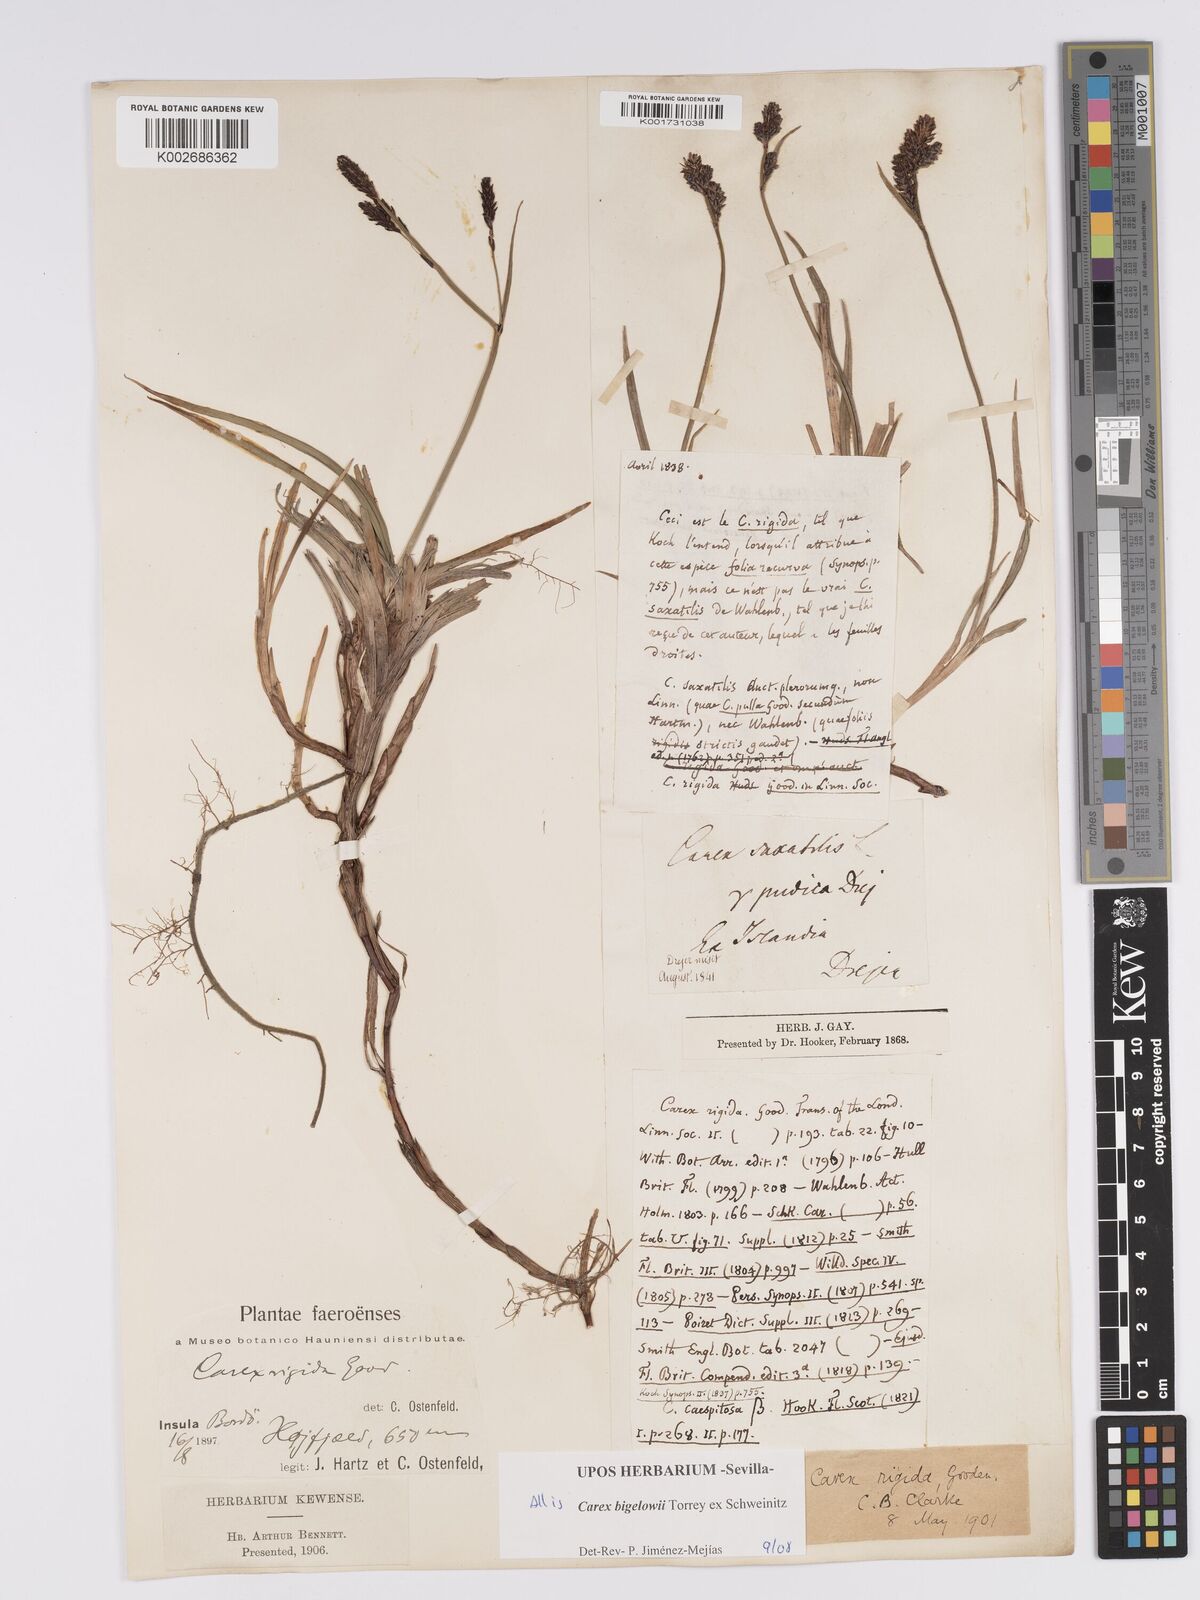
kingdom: Plantae
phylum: Tracheophyta
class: Liliopsida
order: Poales
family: Cyperaceae
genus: Carex
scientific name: Carex bigelowii
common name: Stiff sedge
